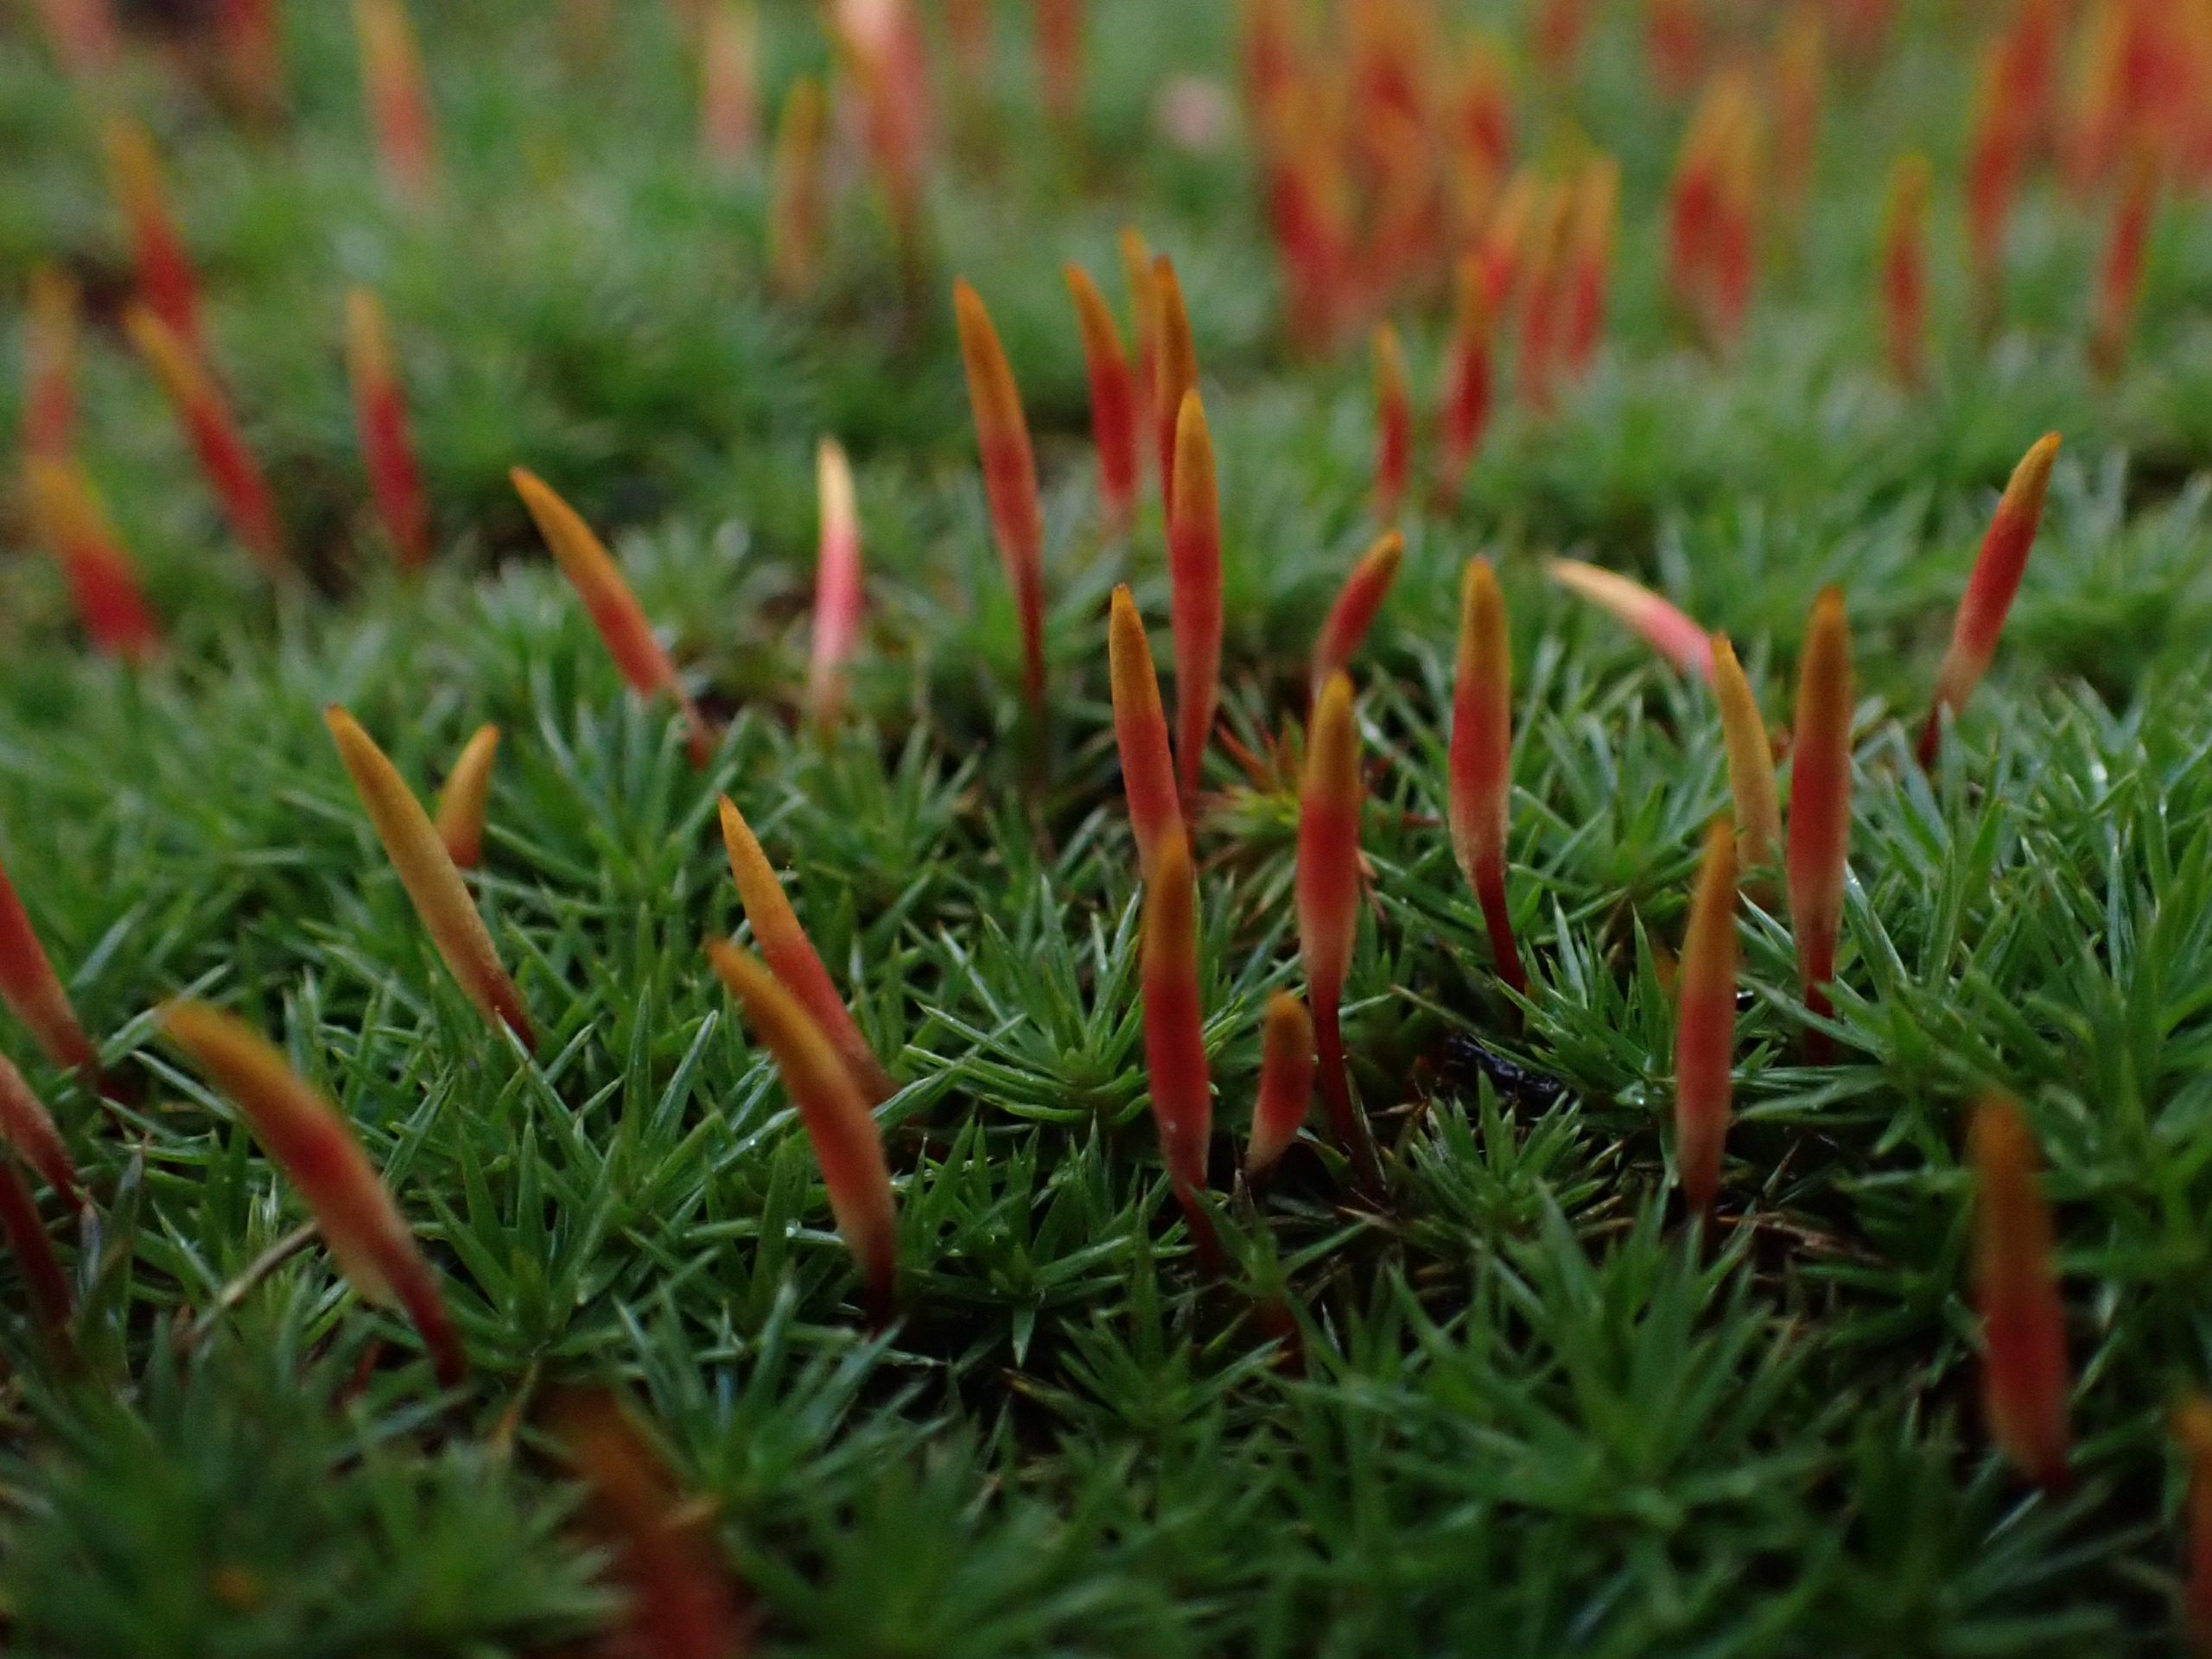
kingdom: Plantae
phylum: Bryophyta
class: Polytrichopsida
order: Polytrichales
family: Polytrichaceae
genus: Polytrichum
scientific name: Polytrichum juniperinum
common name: Ene-jomfruhår
